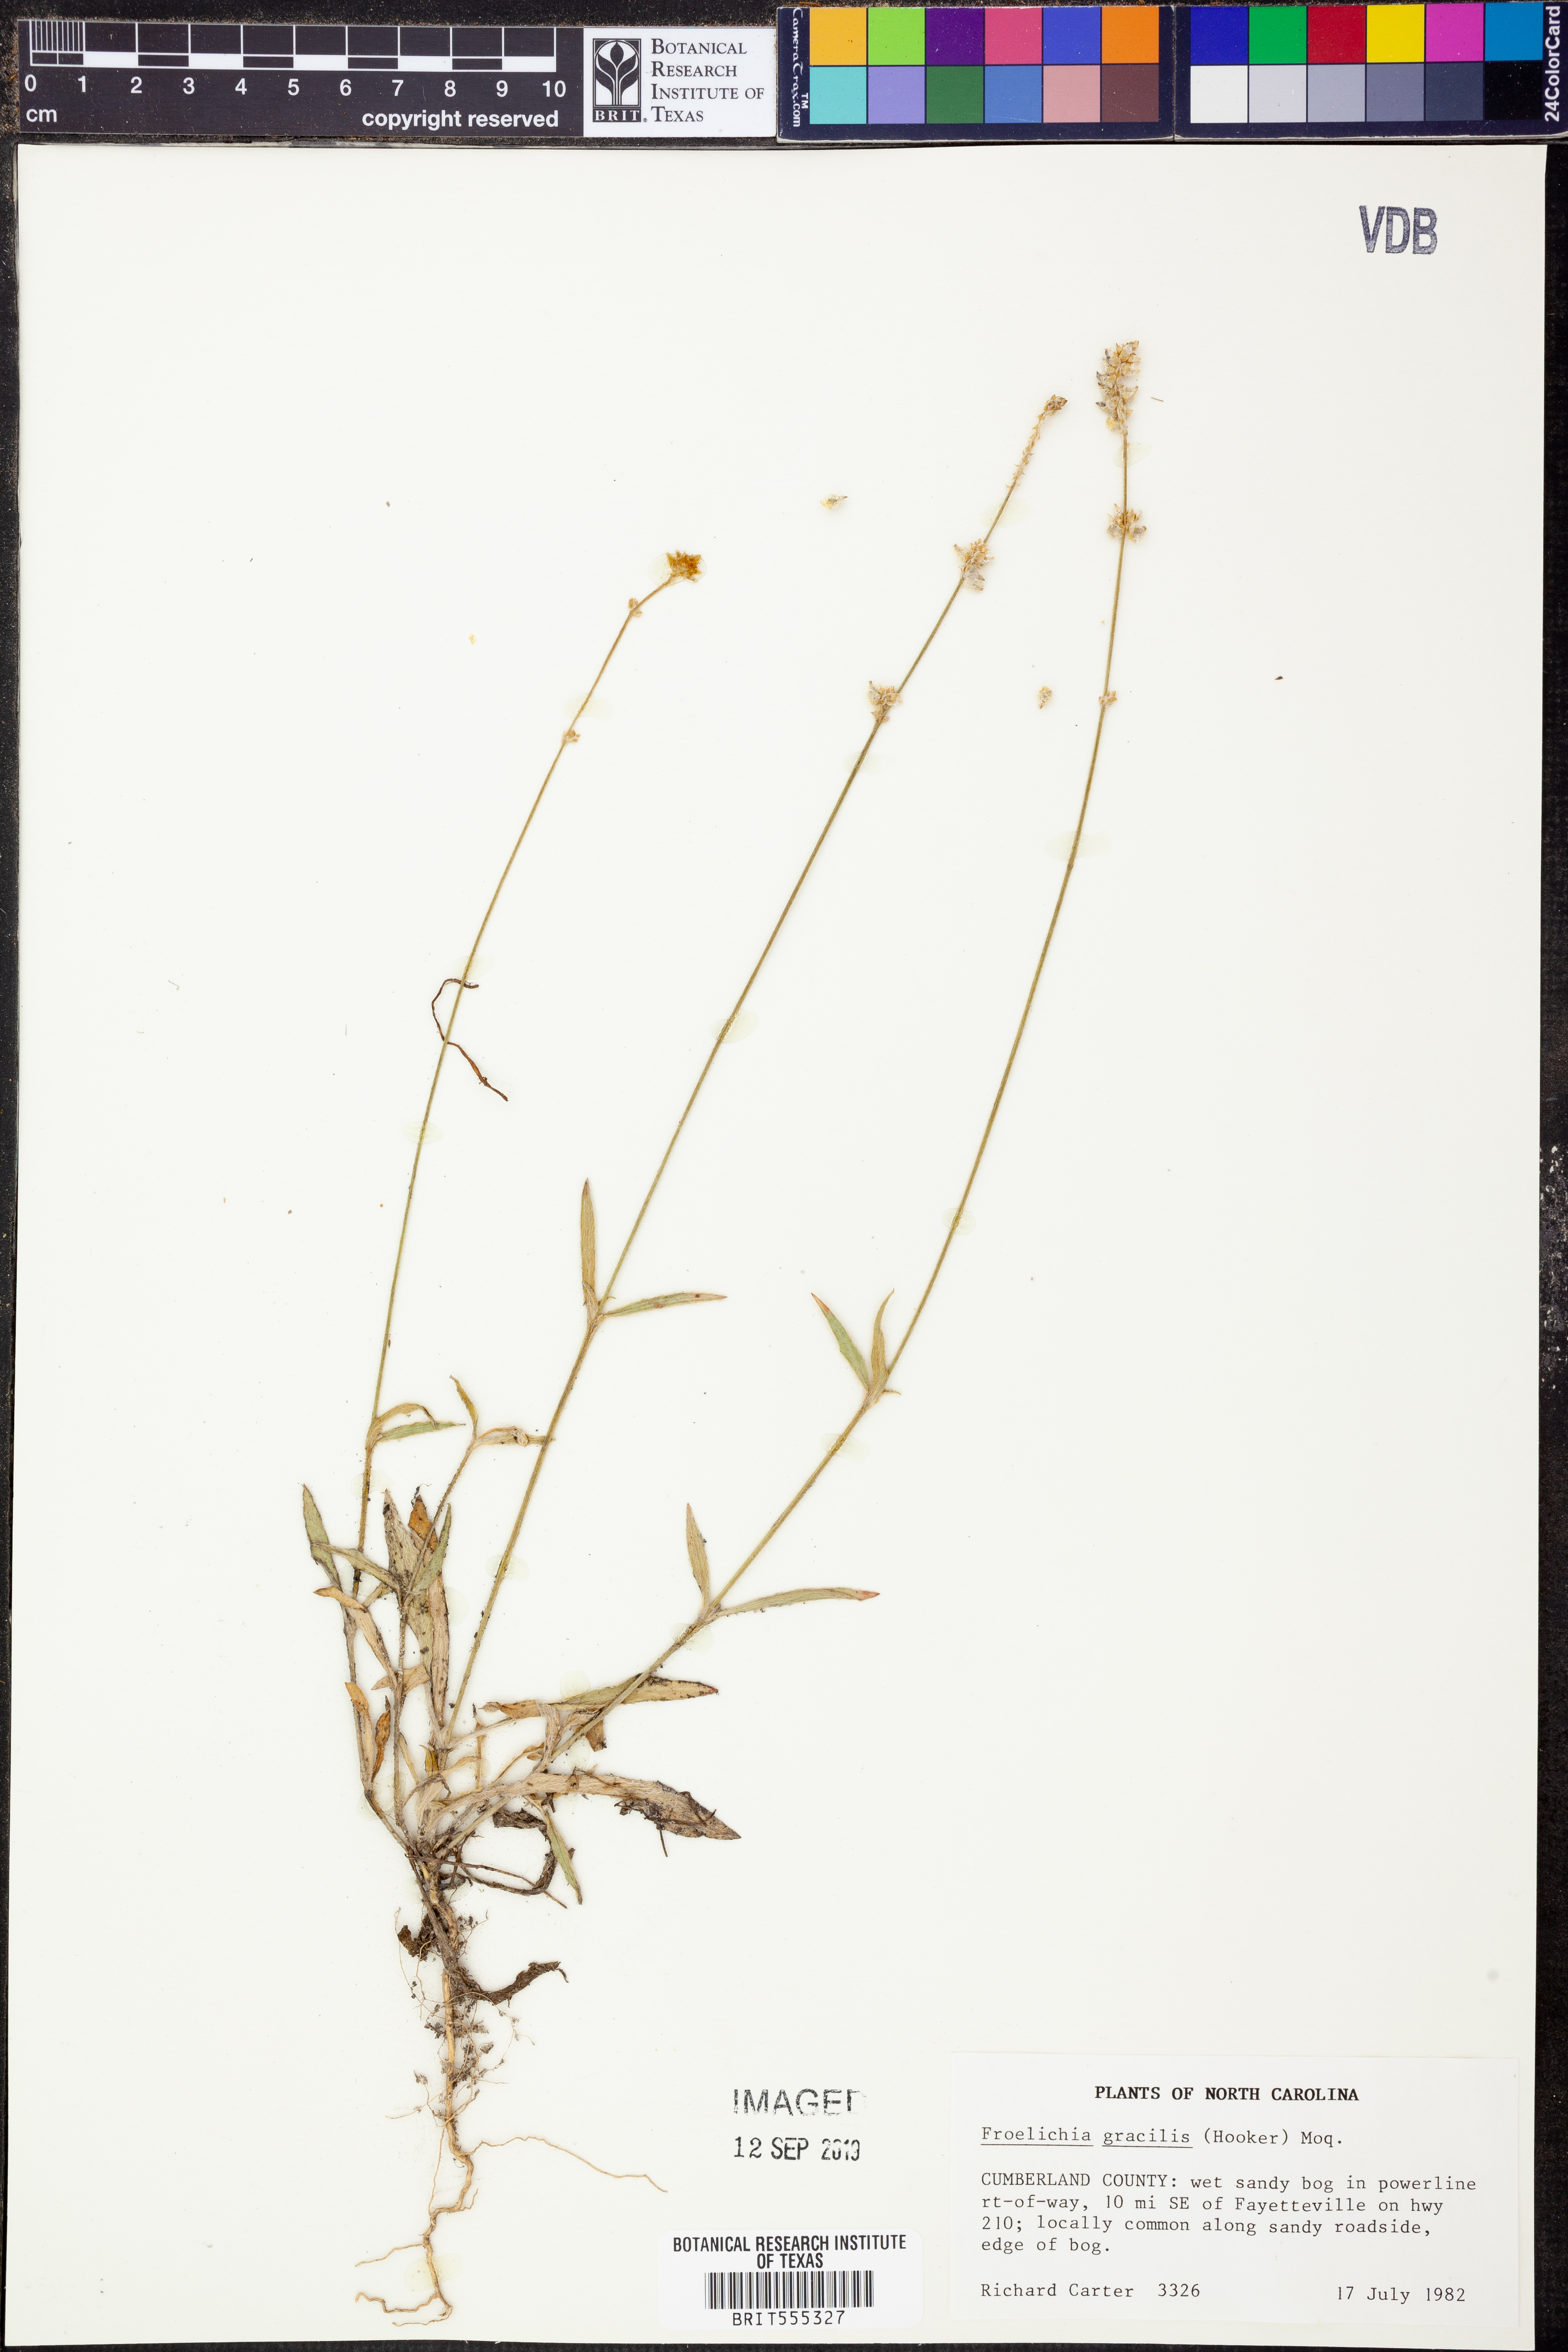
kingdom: Plantae
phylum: Tracheophyta
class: Magnoliopsida
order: Caryophyllales
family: Amaranthaceae
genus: Froelichia
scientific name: Froelichia gracilis
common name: Slender cottonweed
